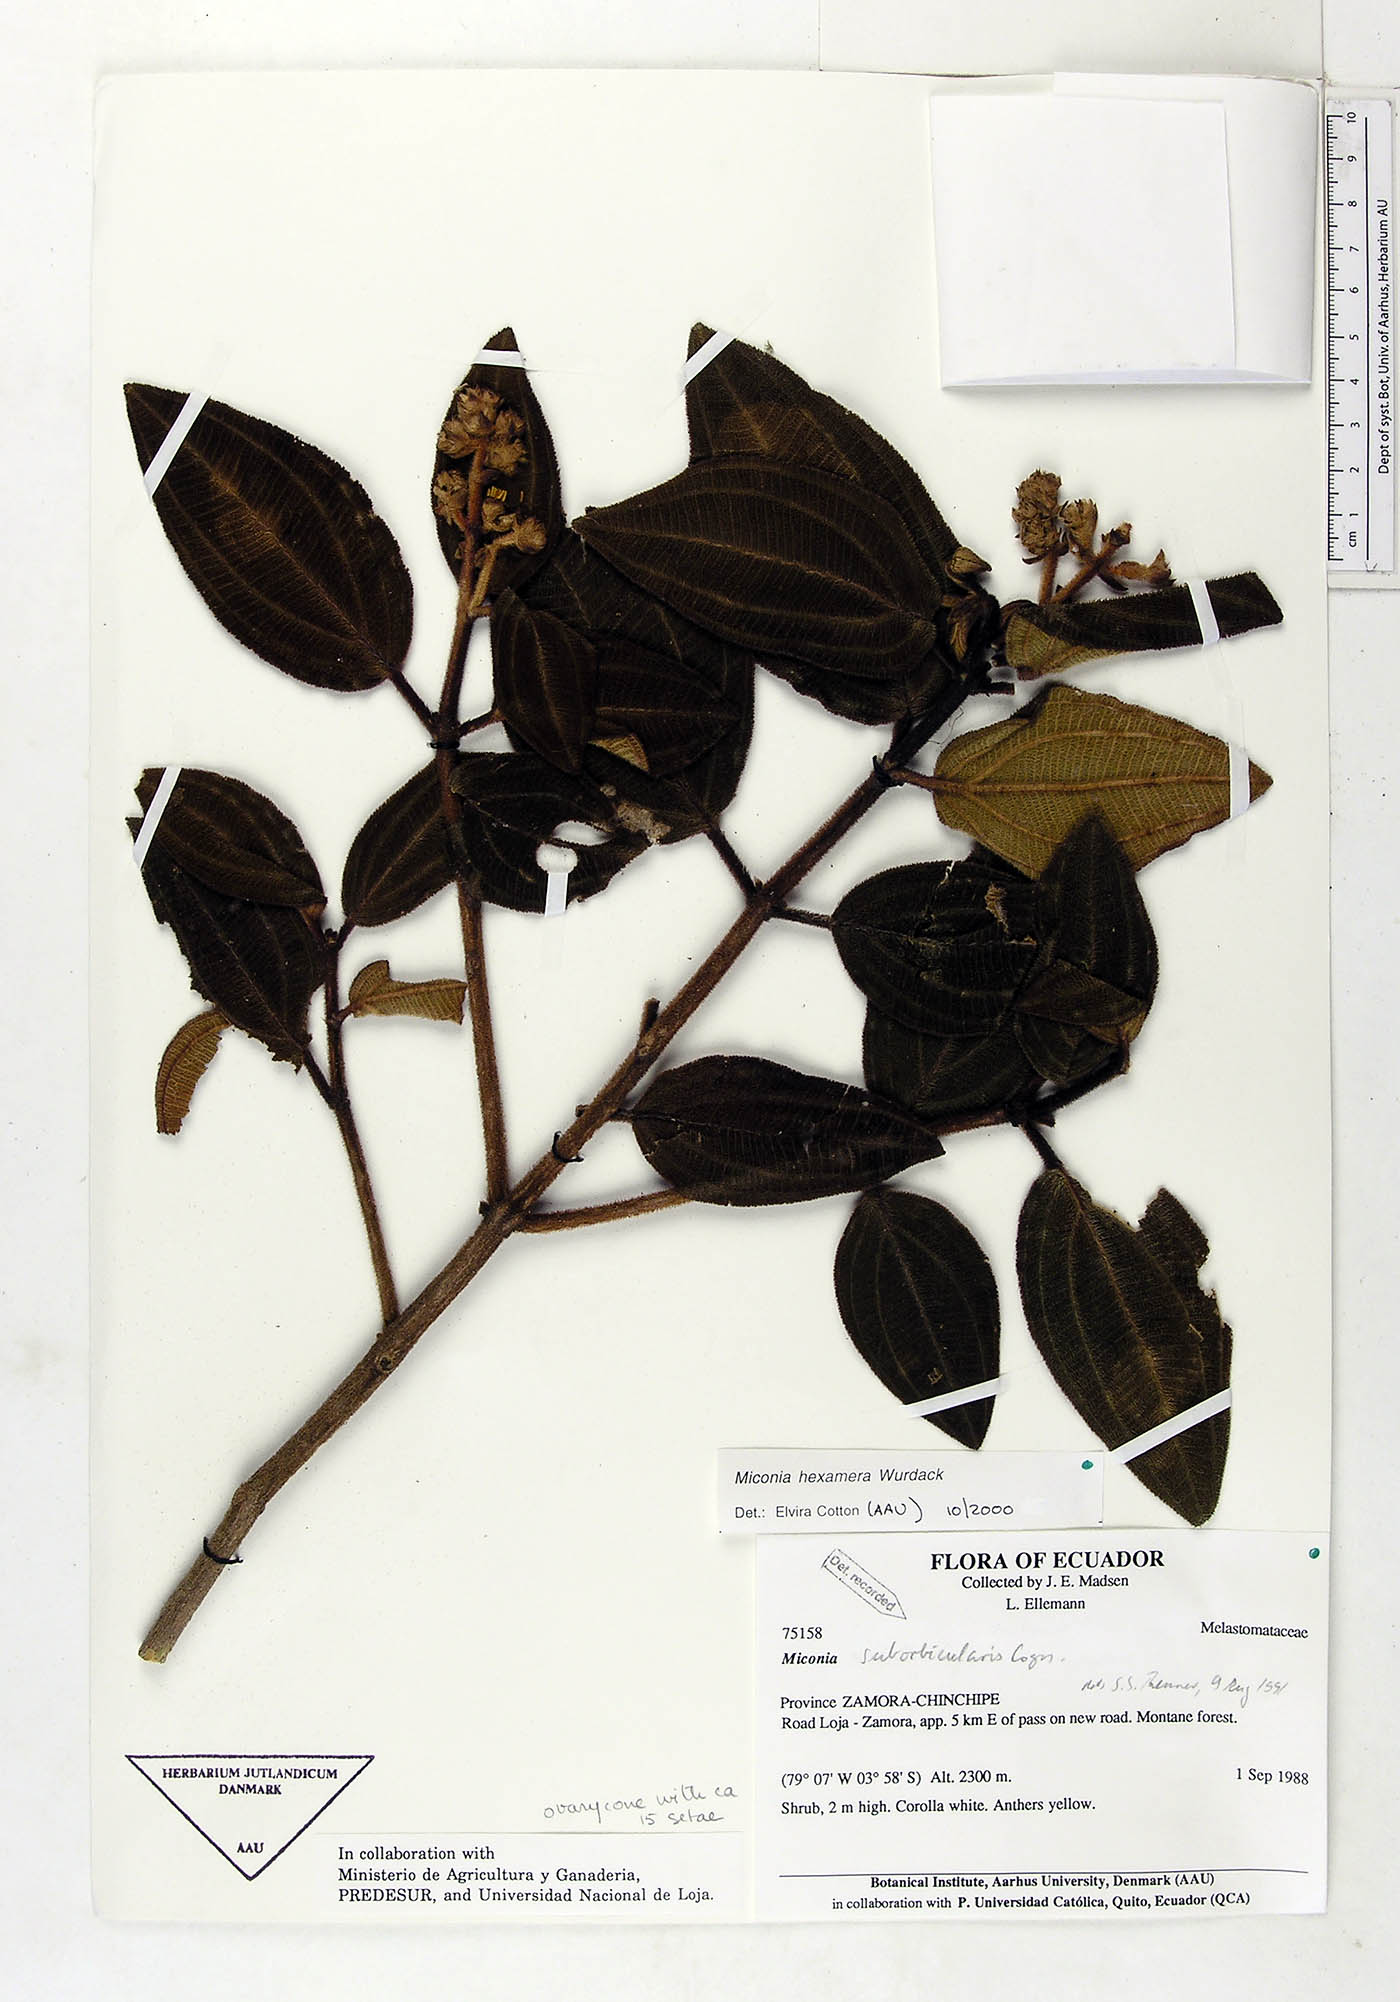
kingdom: Plantae
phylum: Tracheophyta
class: Magnoliopsida
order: Myrtales
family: Melastomataceae
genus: Miconia
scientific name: Miconia suborbicularis
